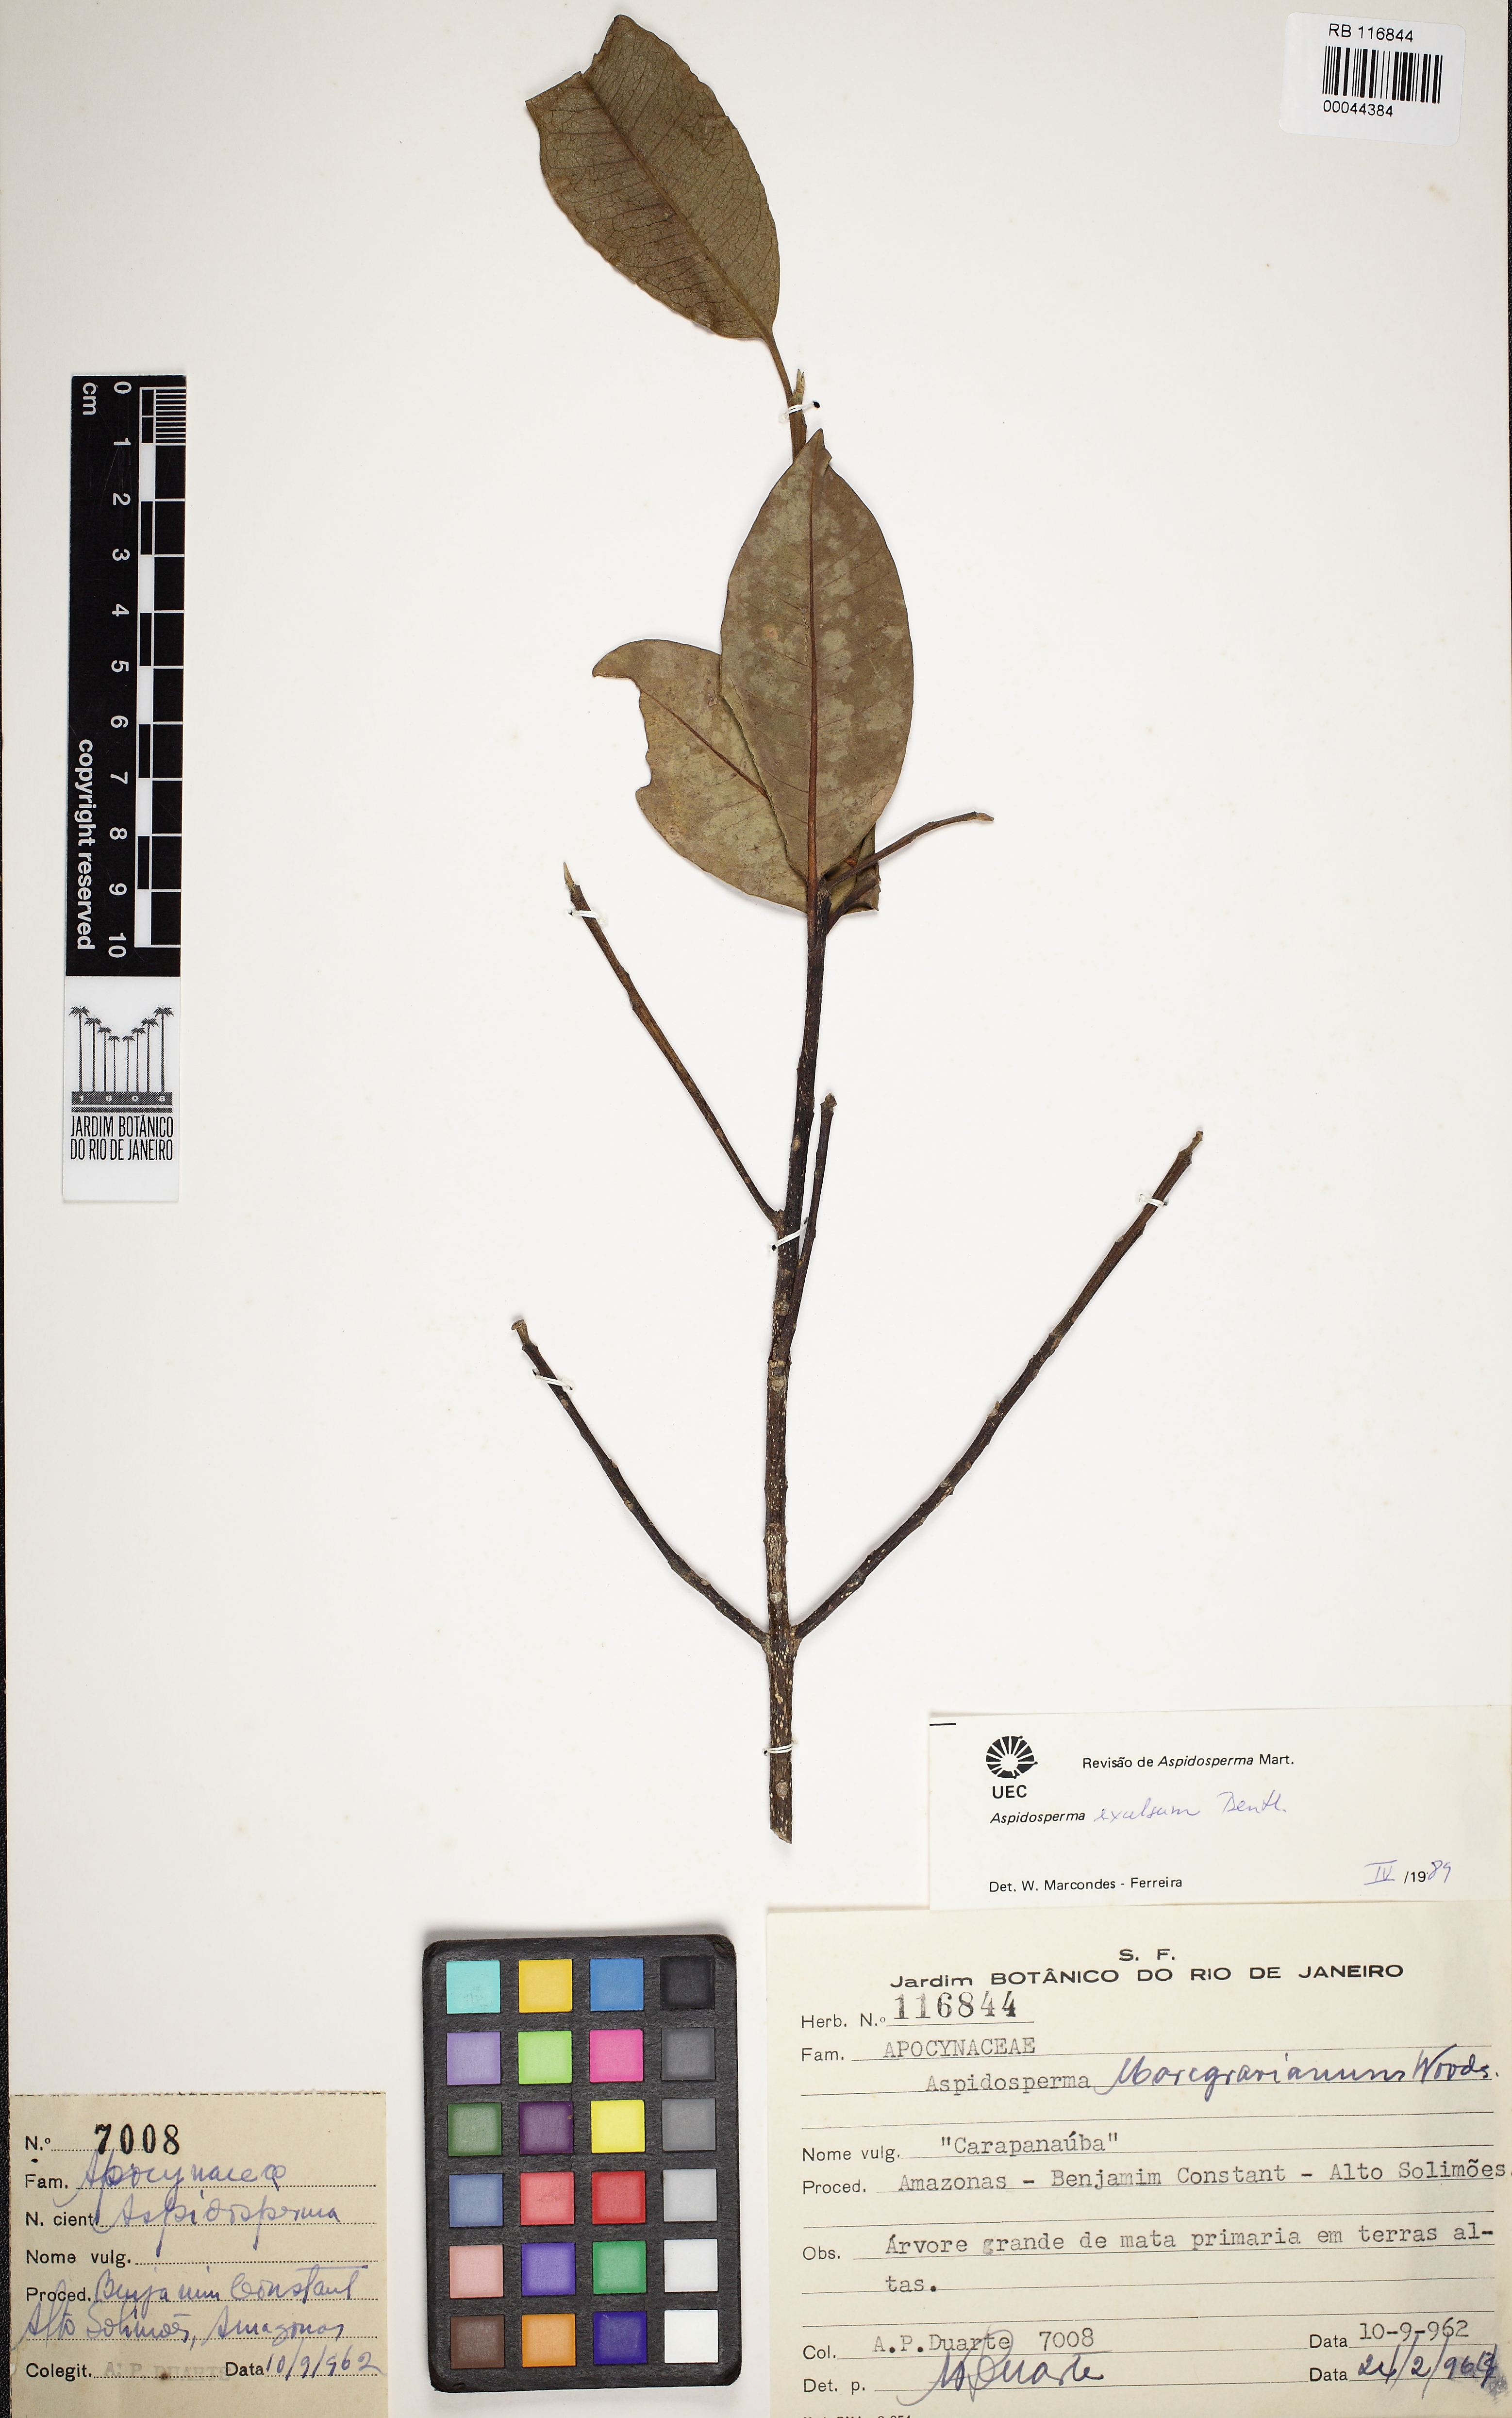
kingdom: Plantae
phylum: Tracheophyta
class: Magnoliopsida
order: Gentianales
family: Apocynaceae
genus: Aspidosperma
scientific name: Aspidosperma excelsum
